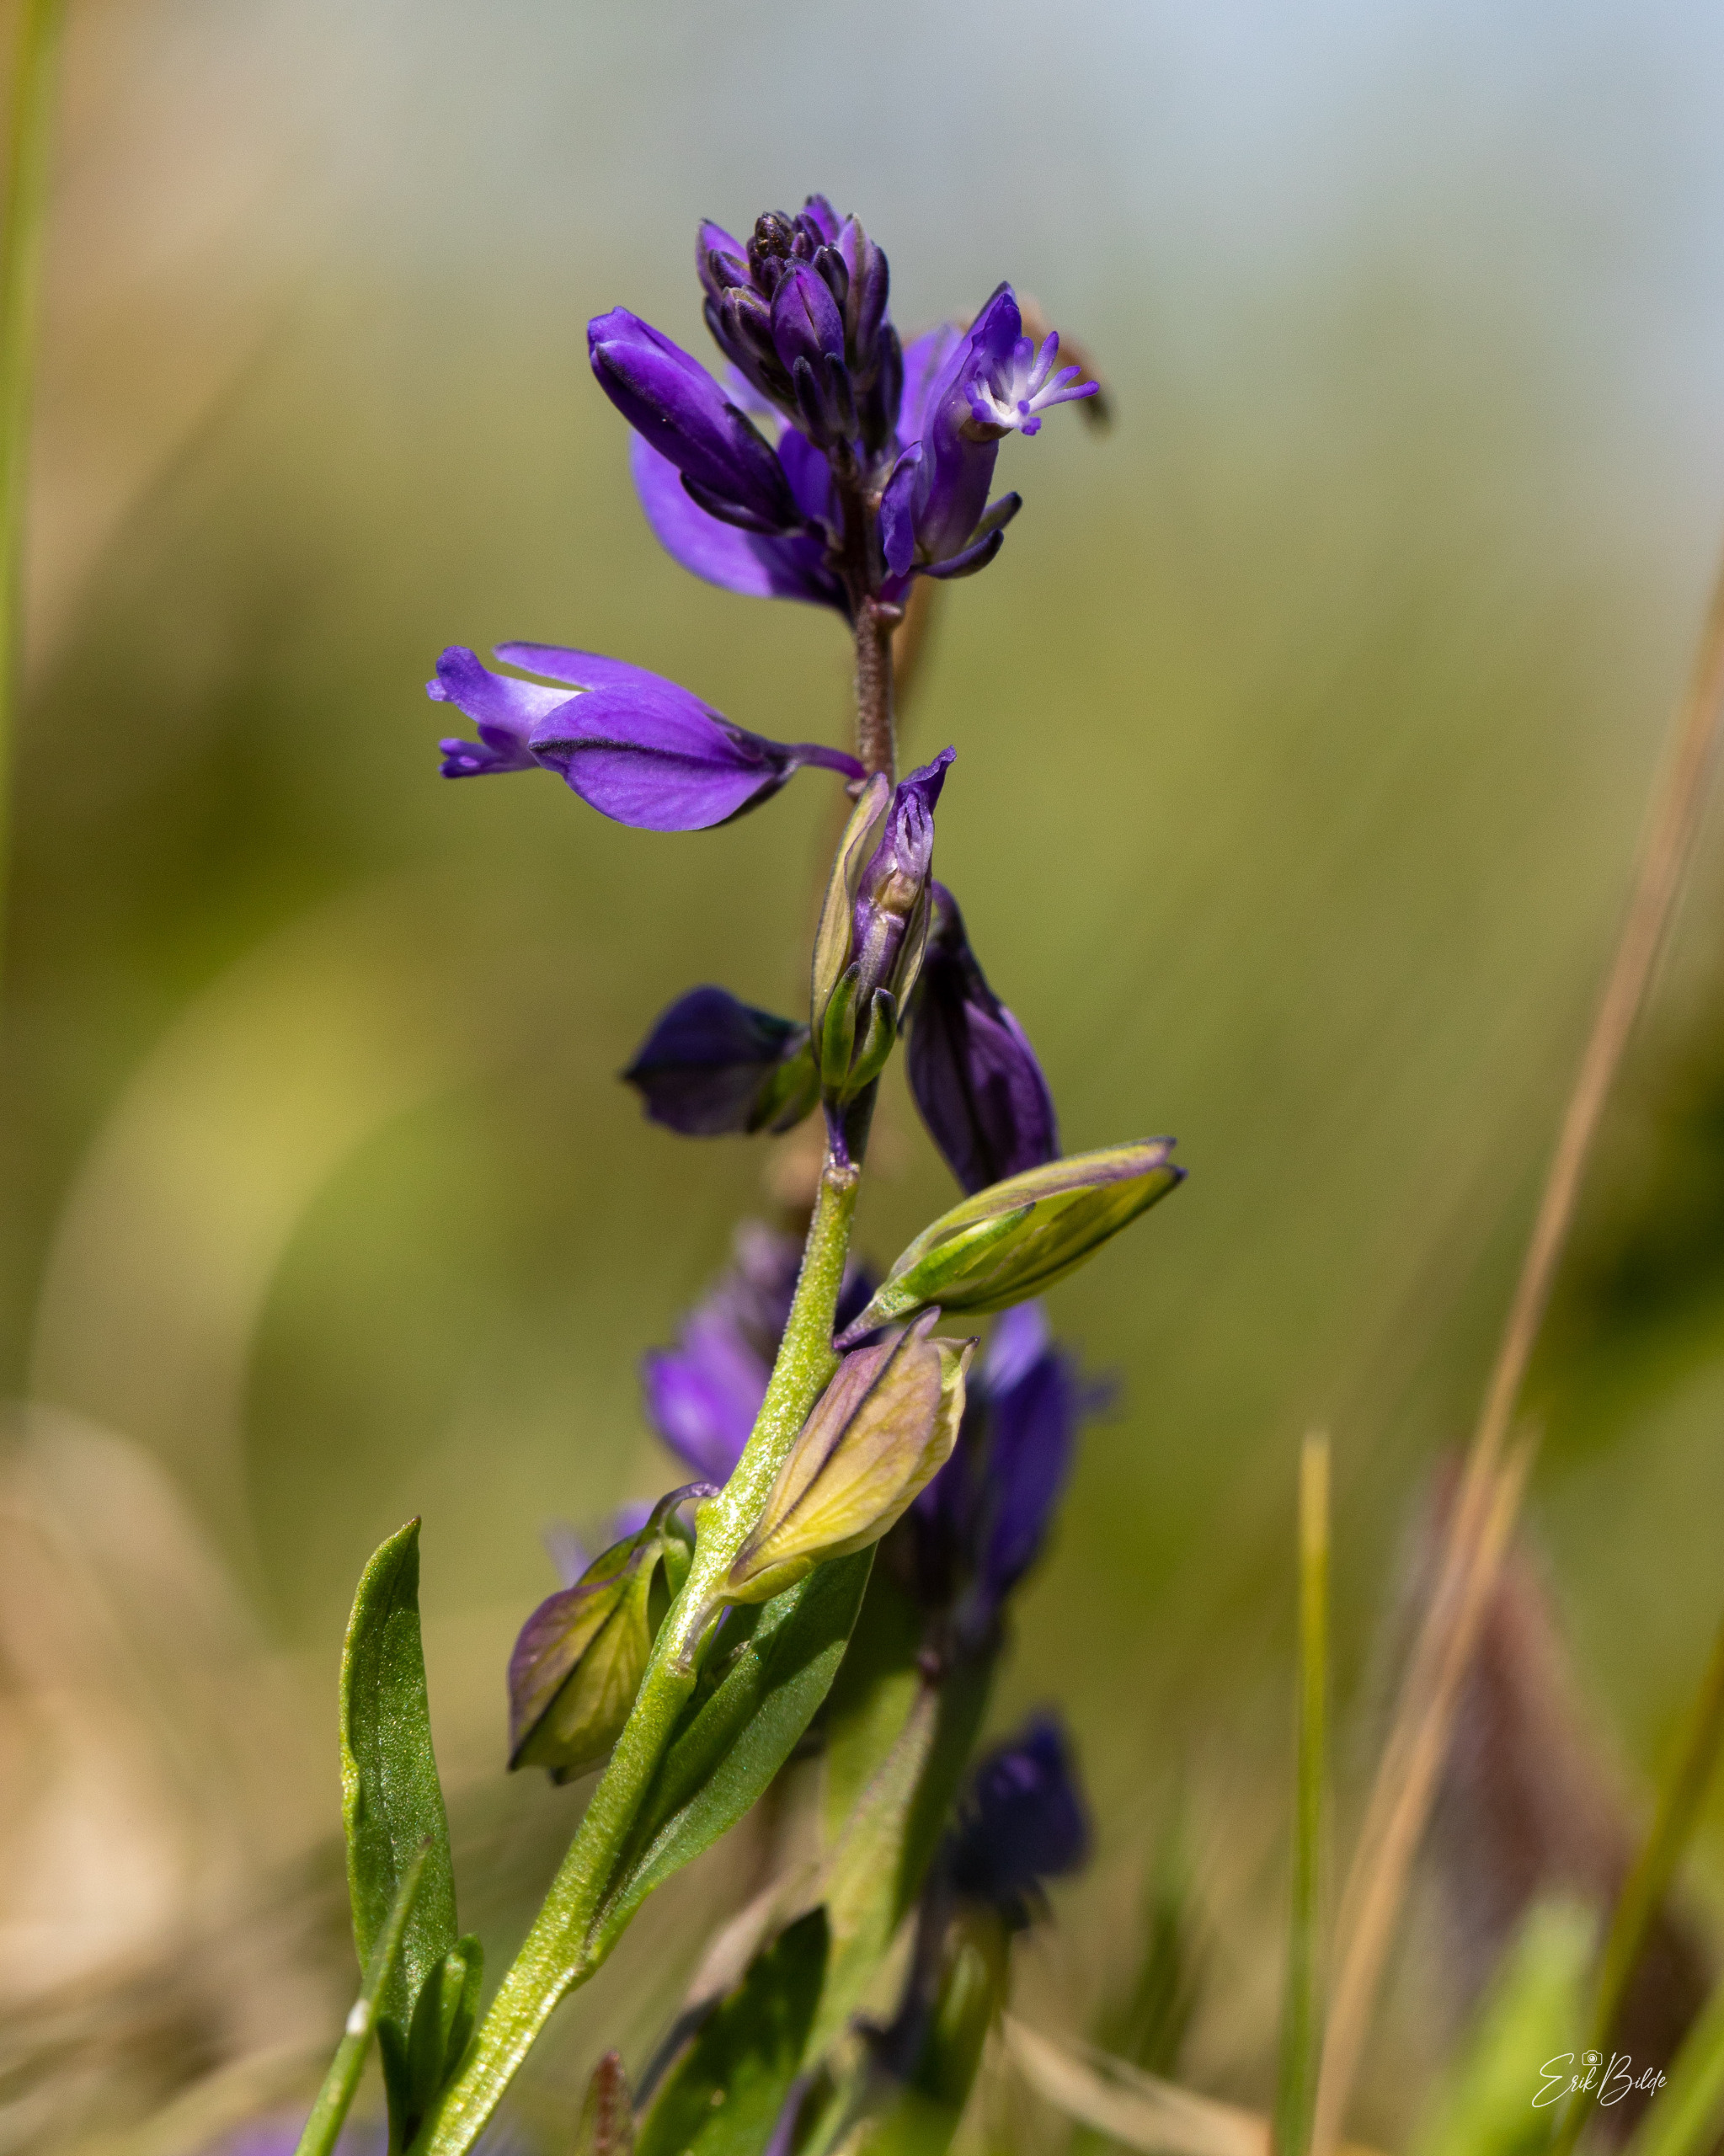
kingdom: Plantae
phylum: Tracheophyta
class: Magnoliopsida
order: Fabales
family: Polygalaceae
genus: Polygala
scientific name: Polygala vulgaris
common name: Almindelig mælkeurt
